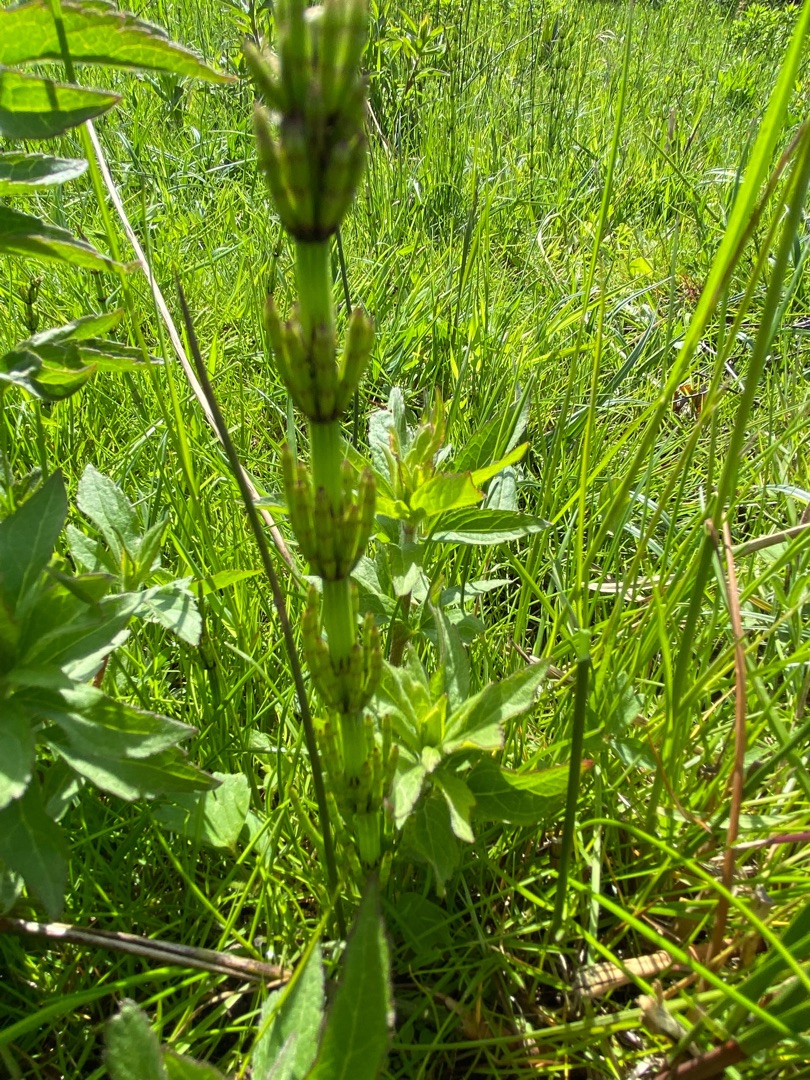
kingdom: Plantae
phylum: Tracheophyta
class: Polypodiopsida
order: Equisetales
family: Equisetaceae
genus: Equisetum
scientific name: Equisetum palustre
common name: Kær-padderok
